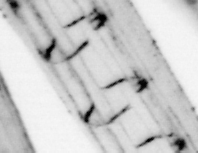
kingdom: Animalia
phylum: Chordata
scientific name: Chordata
